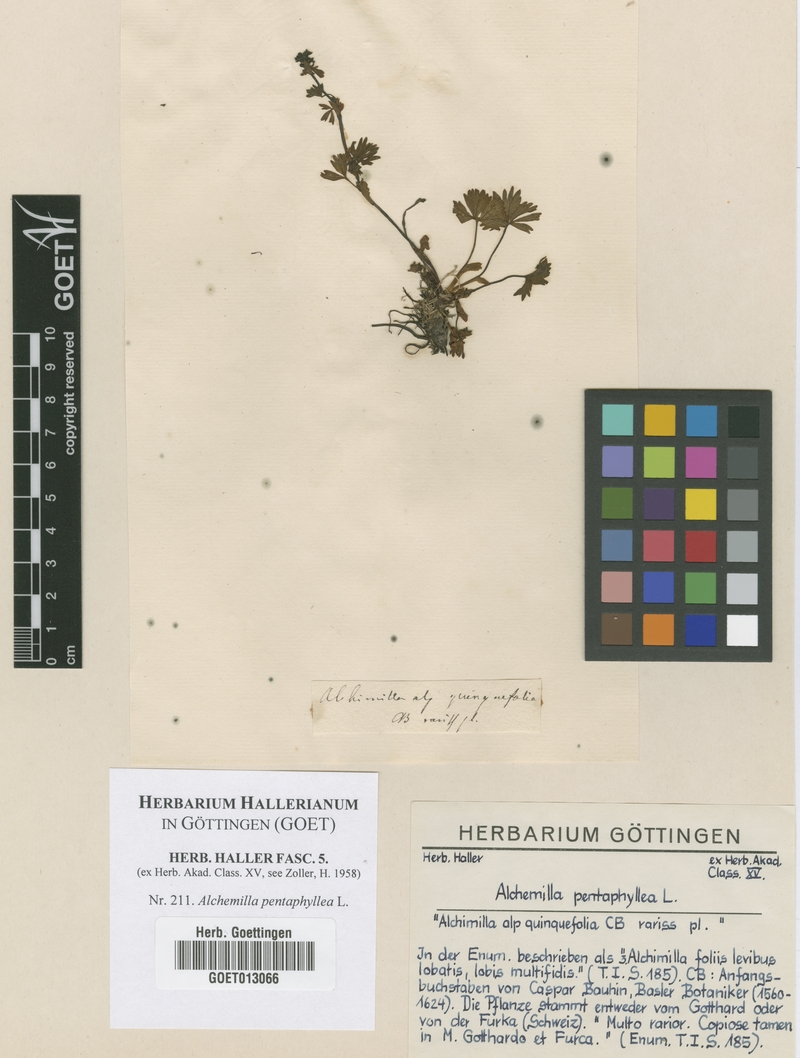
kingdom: Plantae
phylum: Tracheophyta
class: Magnoliopsida
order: Rosales
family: Rosaceae
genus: Alchemilla
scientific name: Alchemilla pentaphyllea
